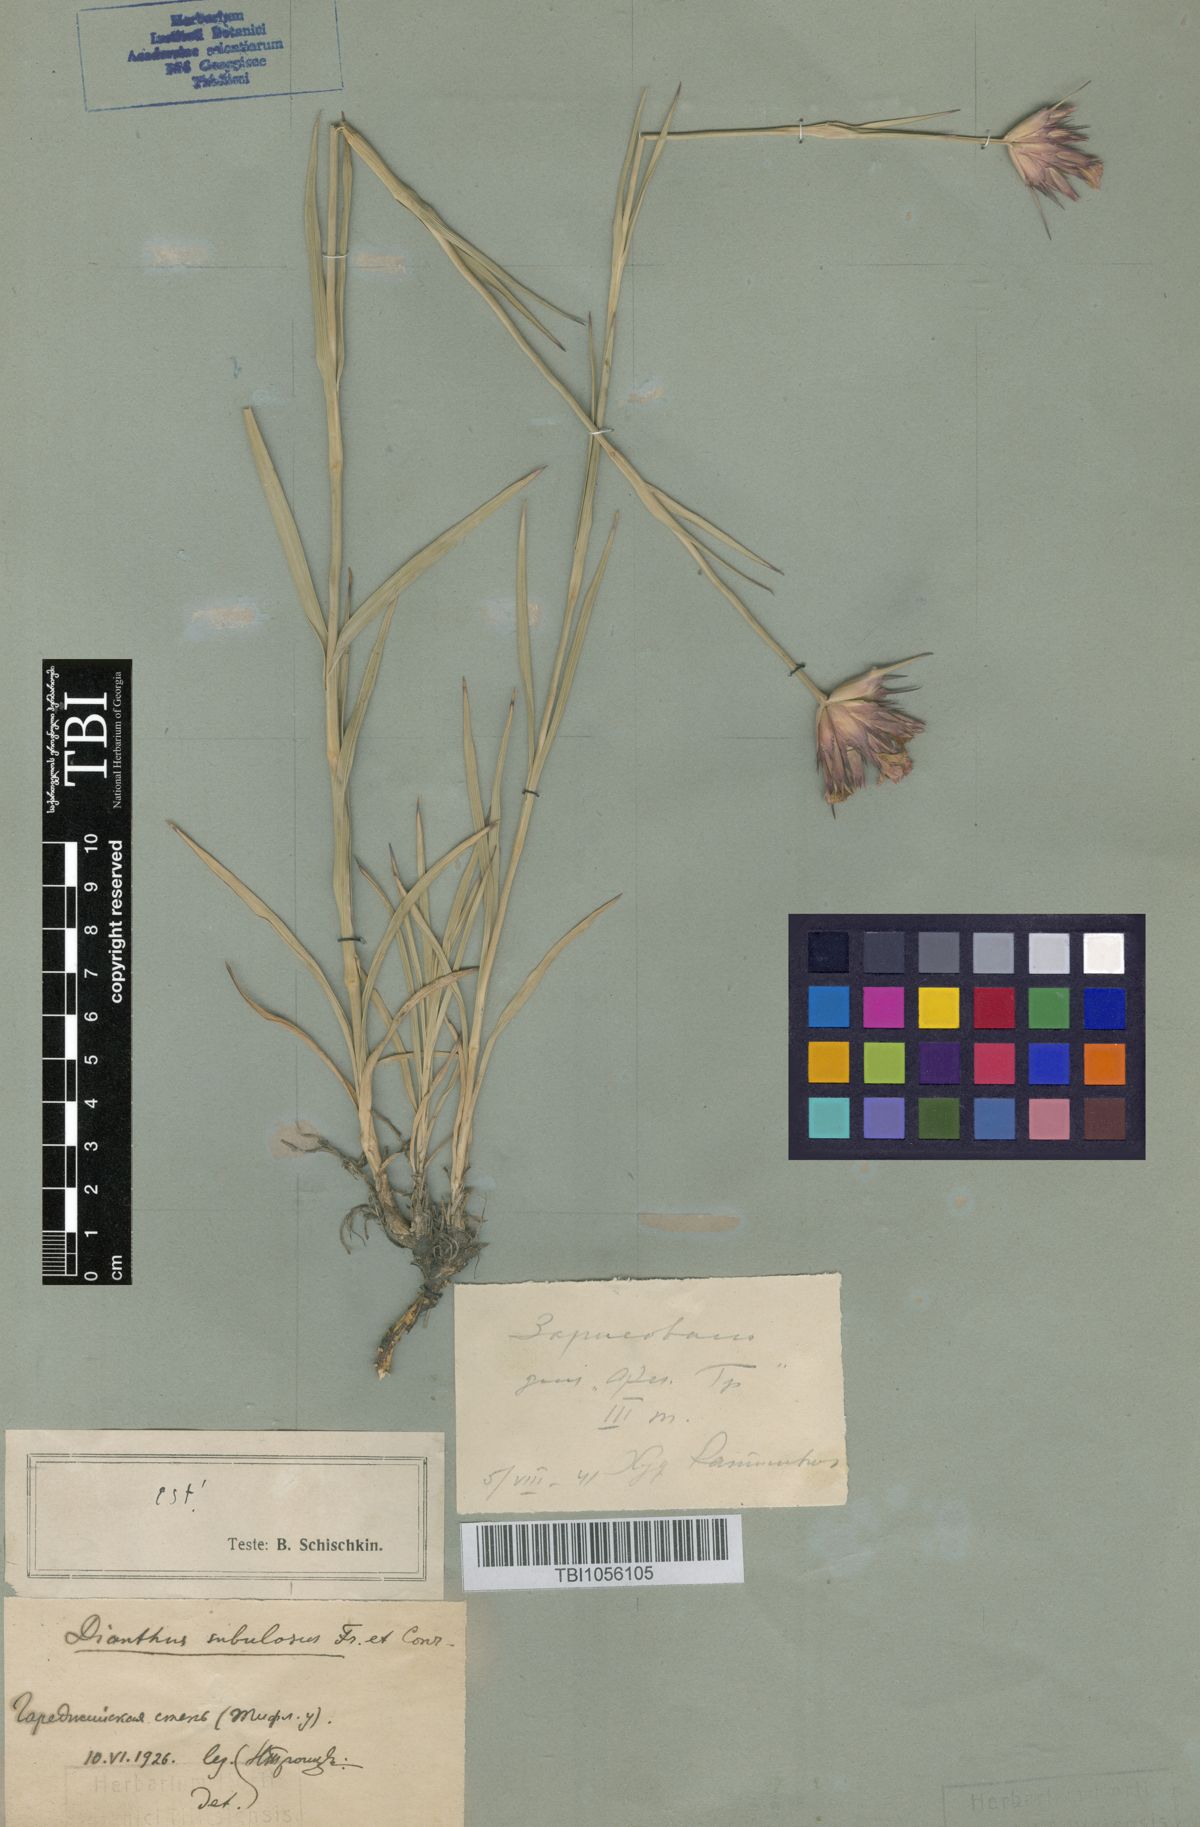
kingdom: Plantae
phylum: Tracheophyta
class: Magnoliopsida
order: Caryophyllales
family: Caryophyllaceae
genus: Dianthus
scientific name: Dianthus subulosus
